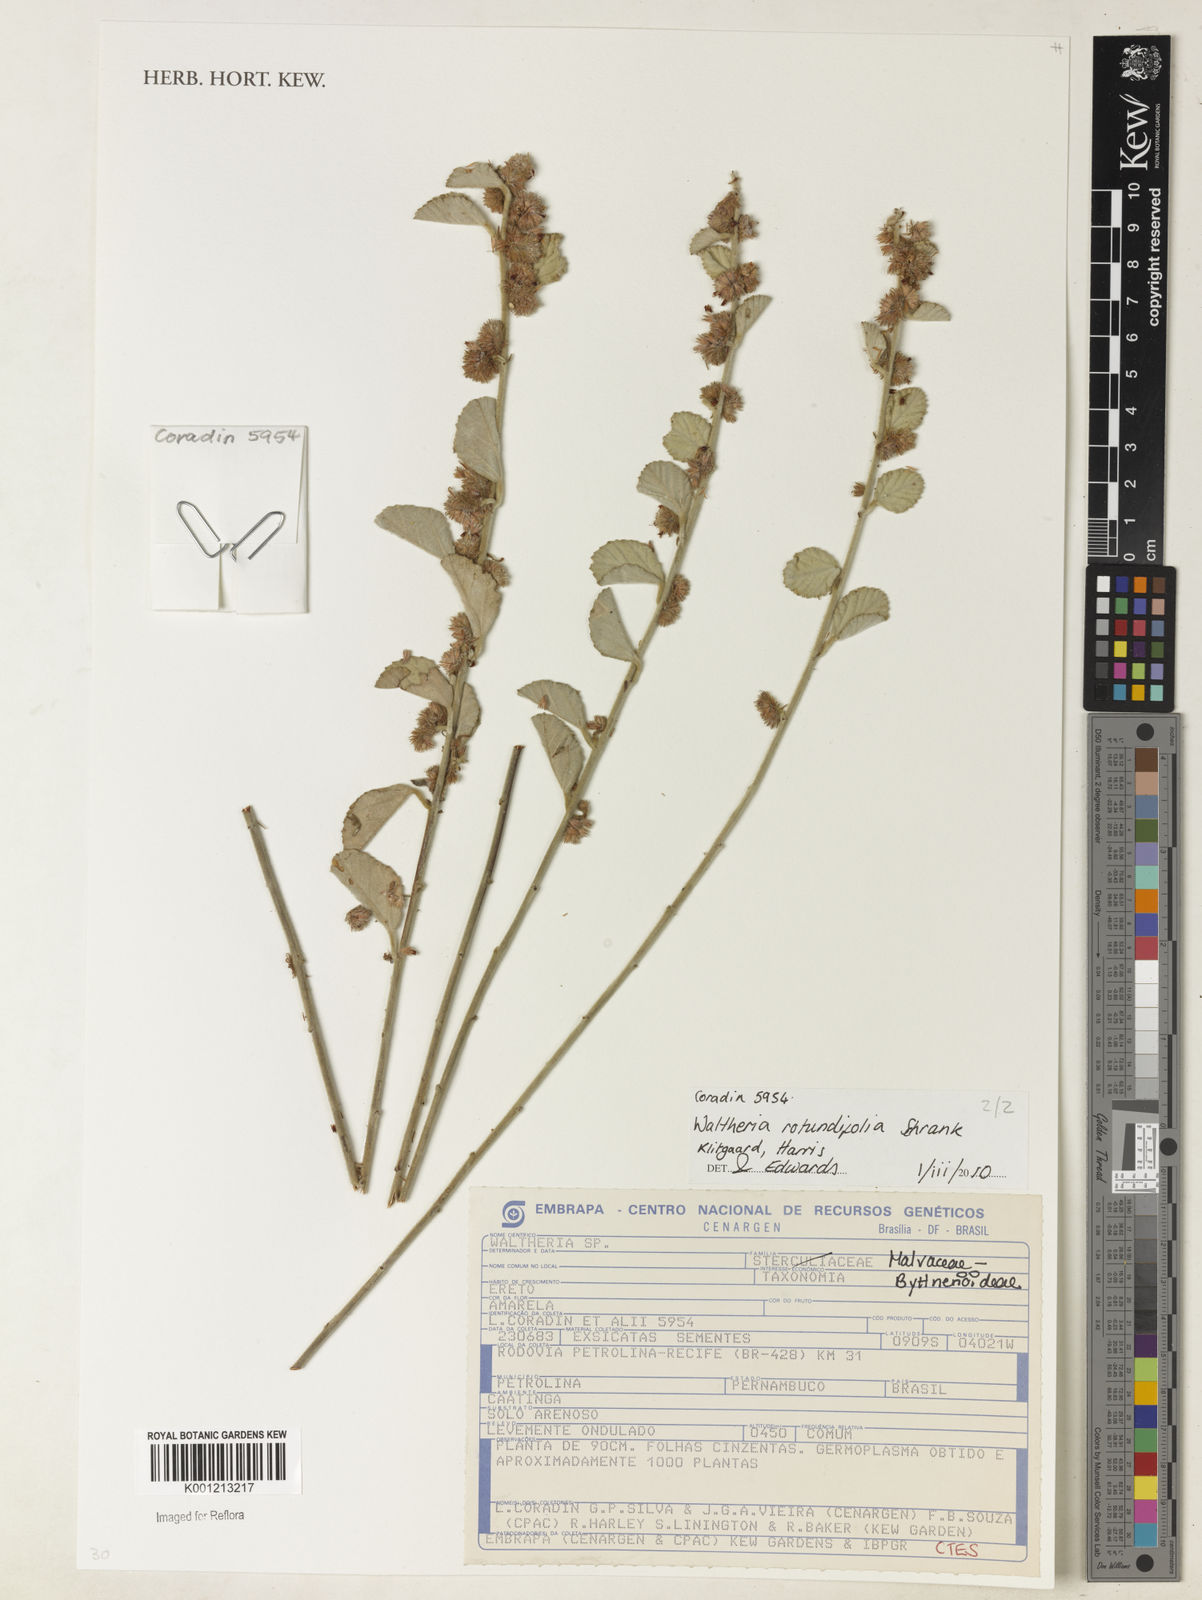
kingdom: Plantae
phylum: Tracheophyta
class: Magnoliopsida
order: Malvales
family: Malvaceae
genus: Waltheria
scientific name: Waltheria rotundifolia
